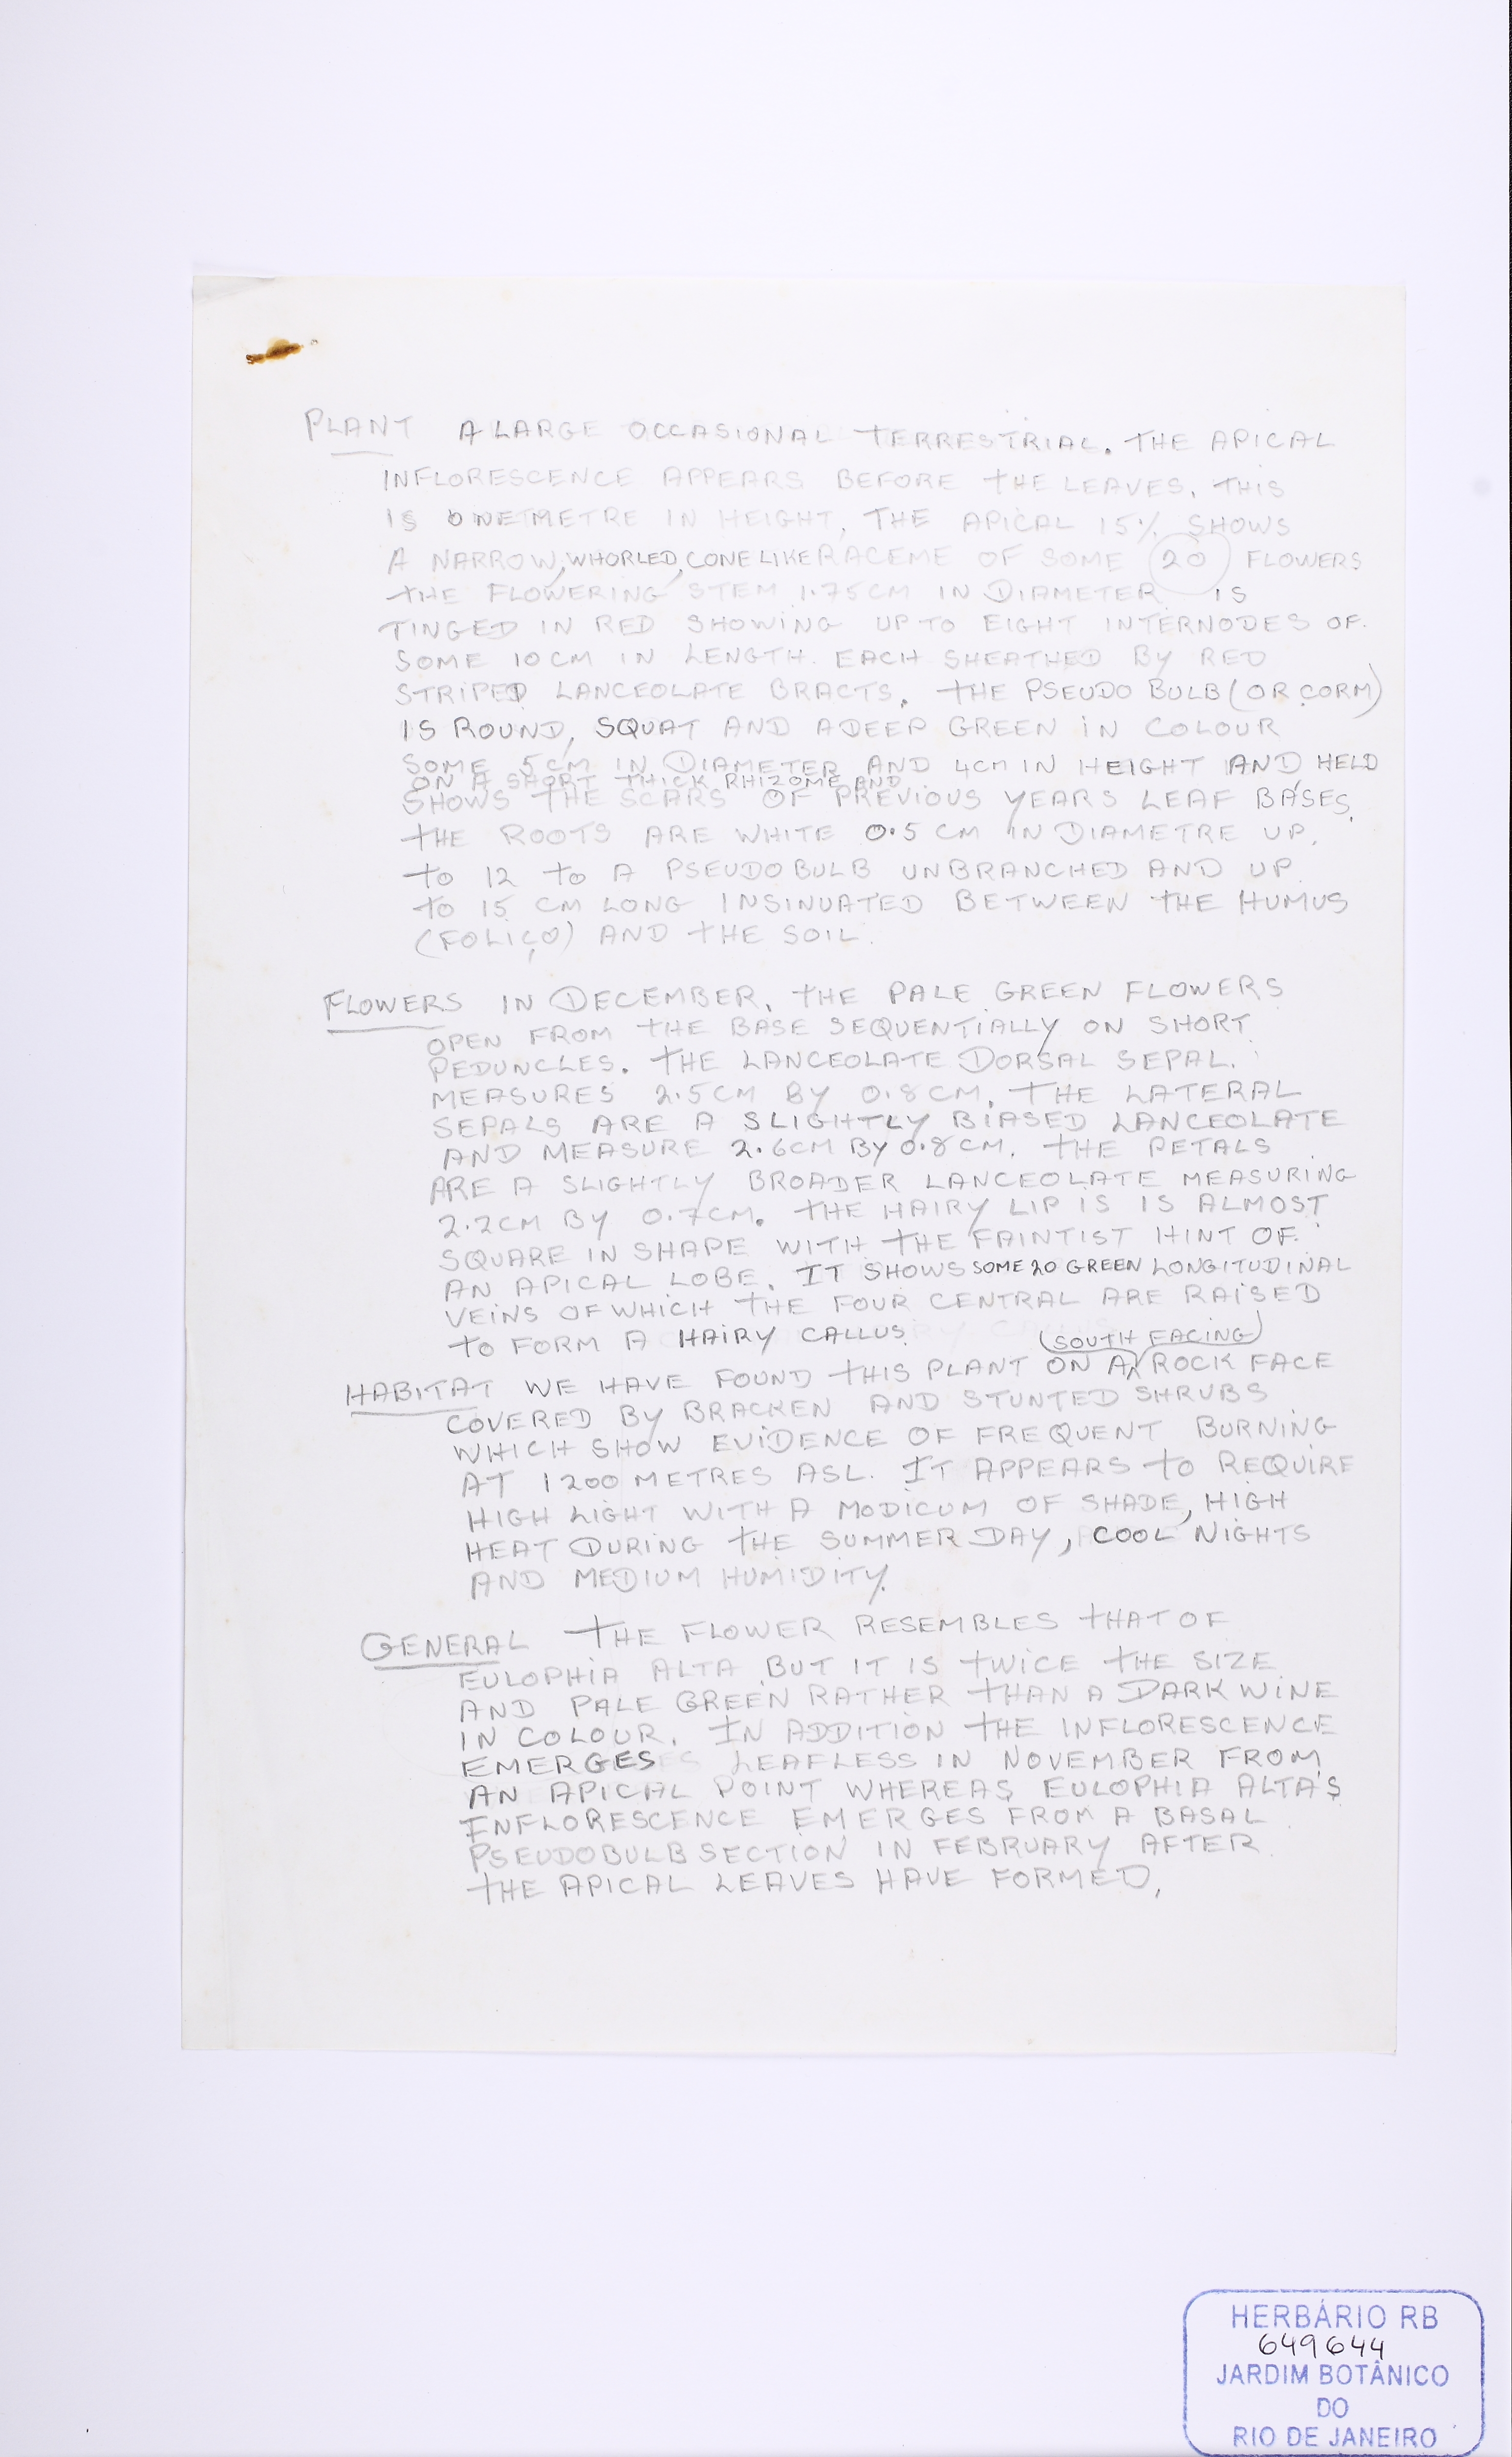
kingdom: Plantae
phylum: Tracheophyta
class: Liliopsida
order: Asparagales
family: Orchidaceae
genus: Galeandra
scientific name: Galeandra beyrichii
